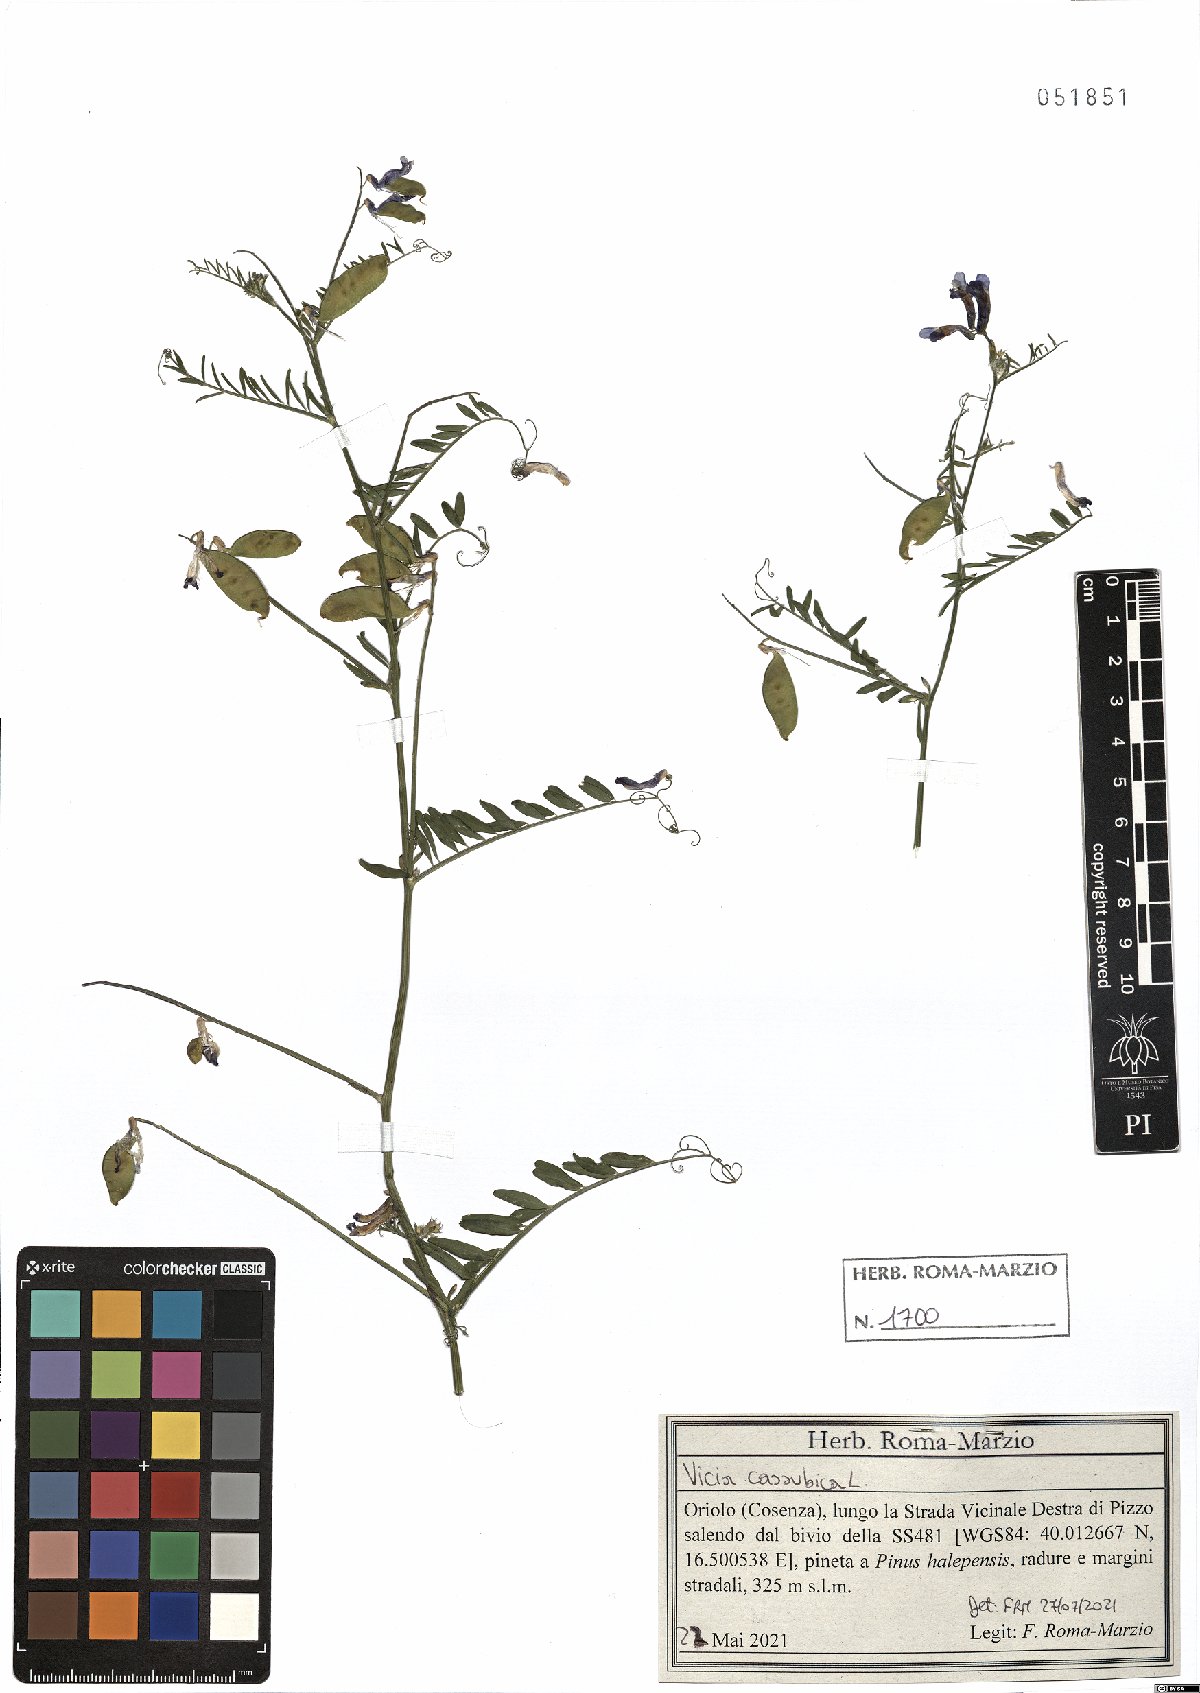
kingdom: Plantae
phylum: Tracheophyta
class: Magnoliopsida
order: Fabales
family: Fabaceae
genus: Vicia
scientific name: Vicia cassubica
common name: Danzig vetch
